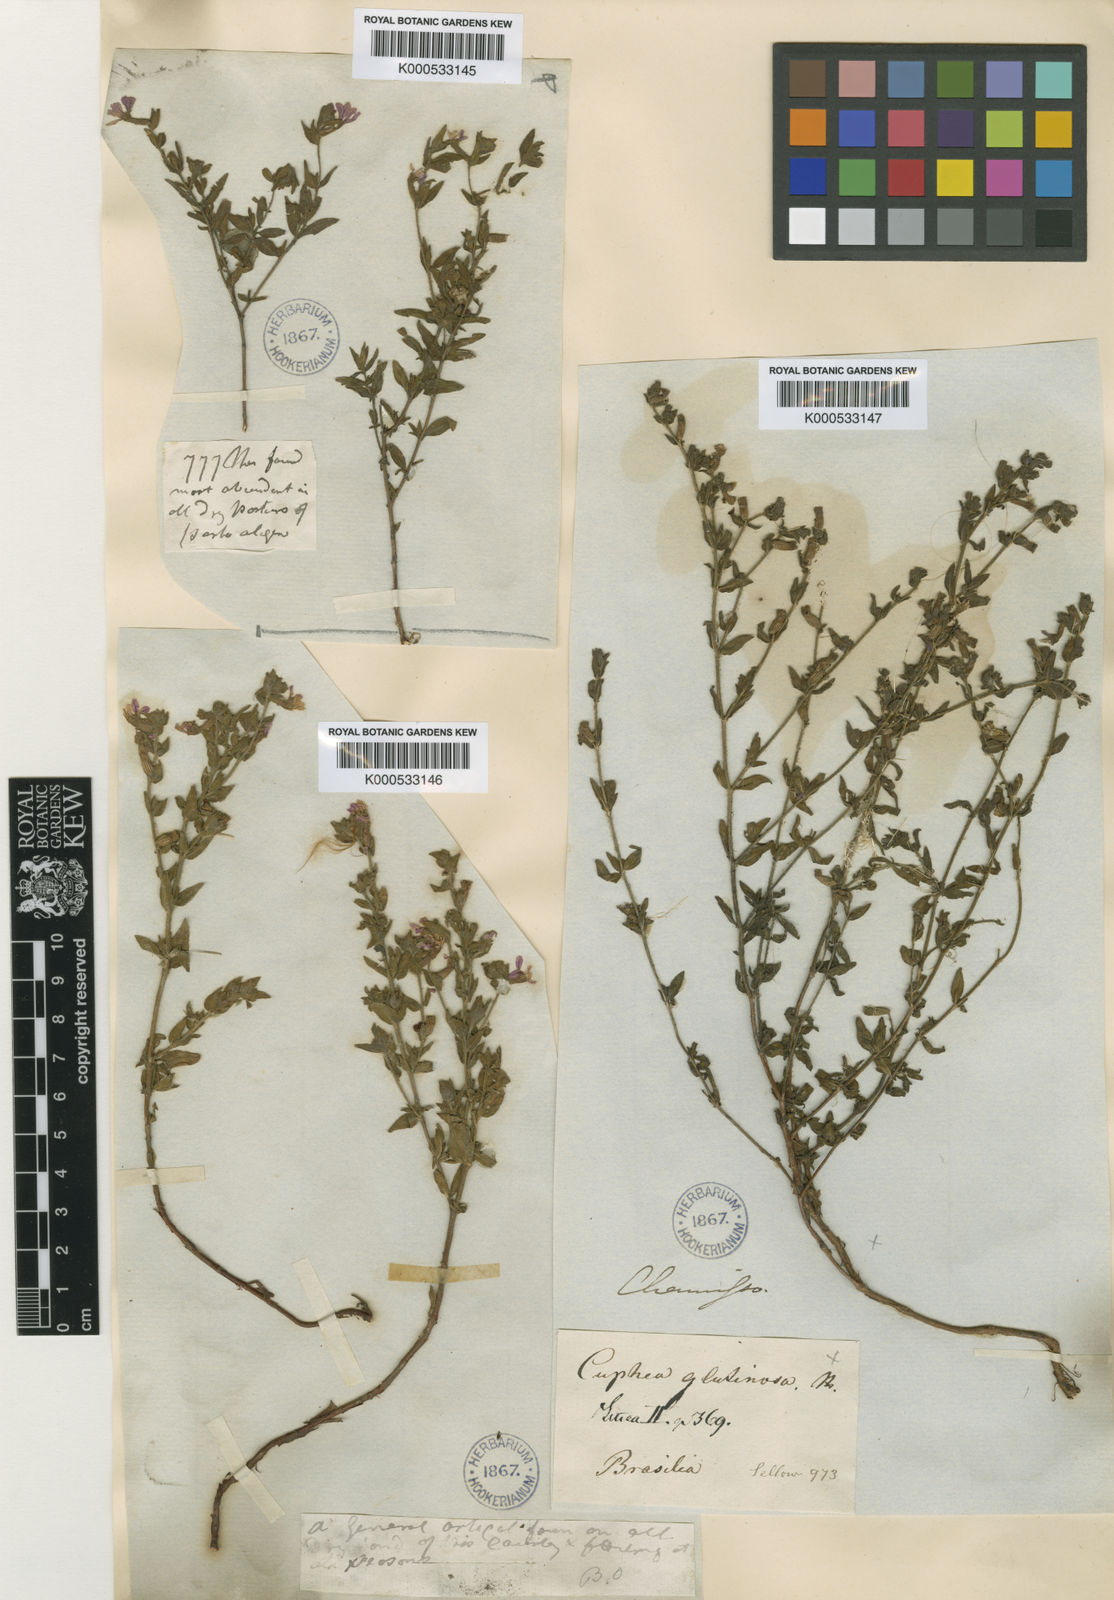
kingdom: Plantae
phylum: Tracheophyta
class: Magnoliopsida
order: Myrtales
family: Lythraceae
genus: Cuphea
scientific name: Cuphea glutinosa
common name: Sticky waxweed
